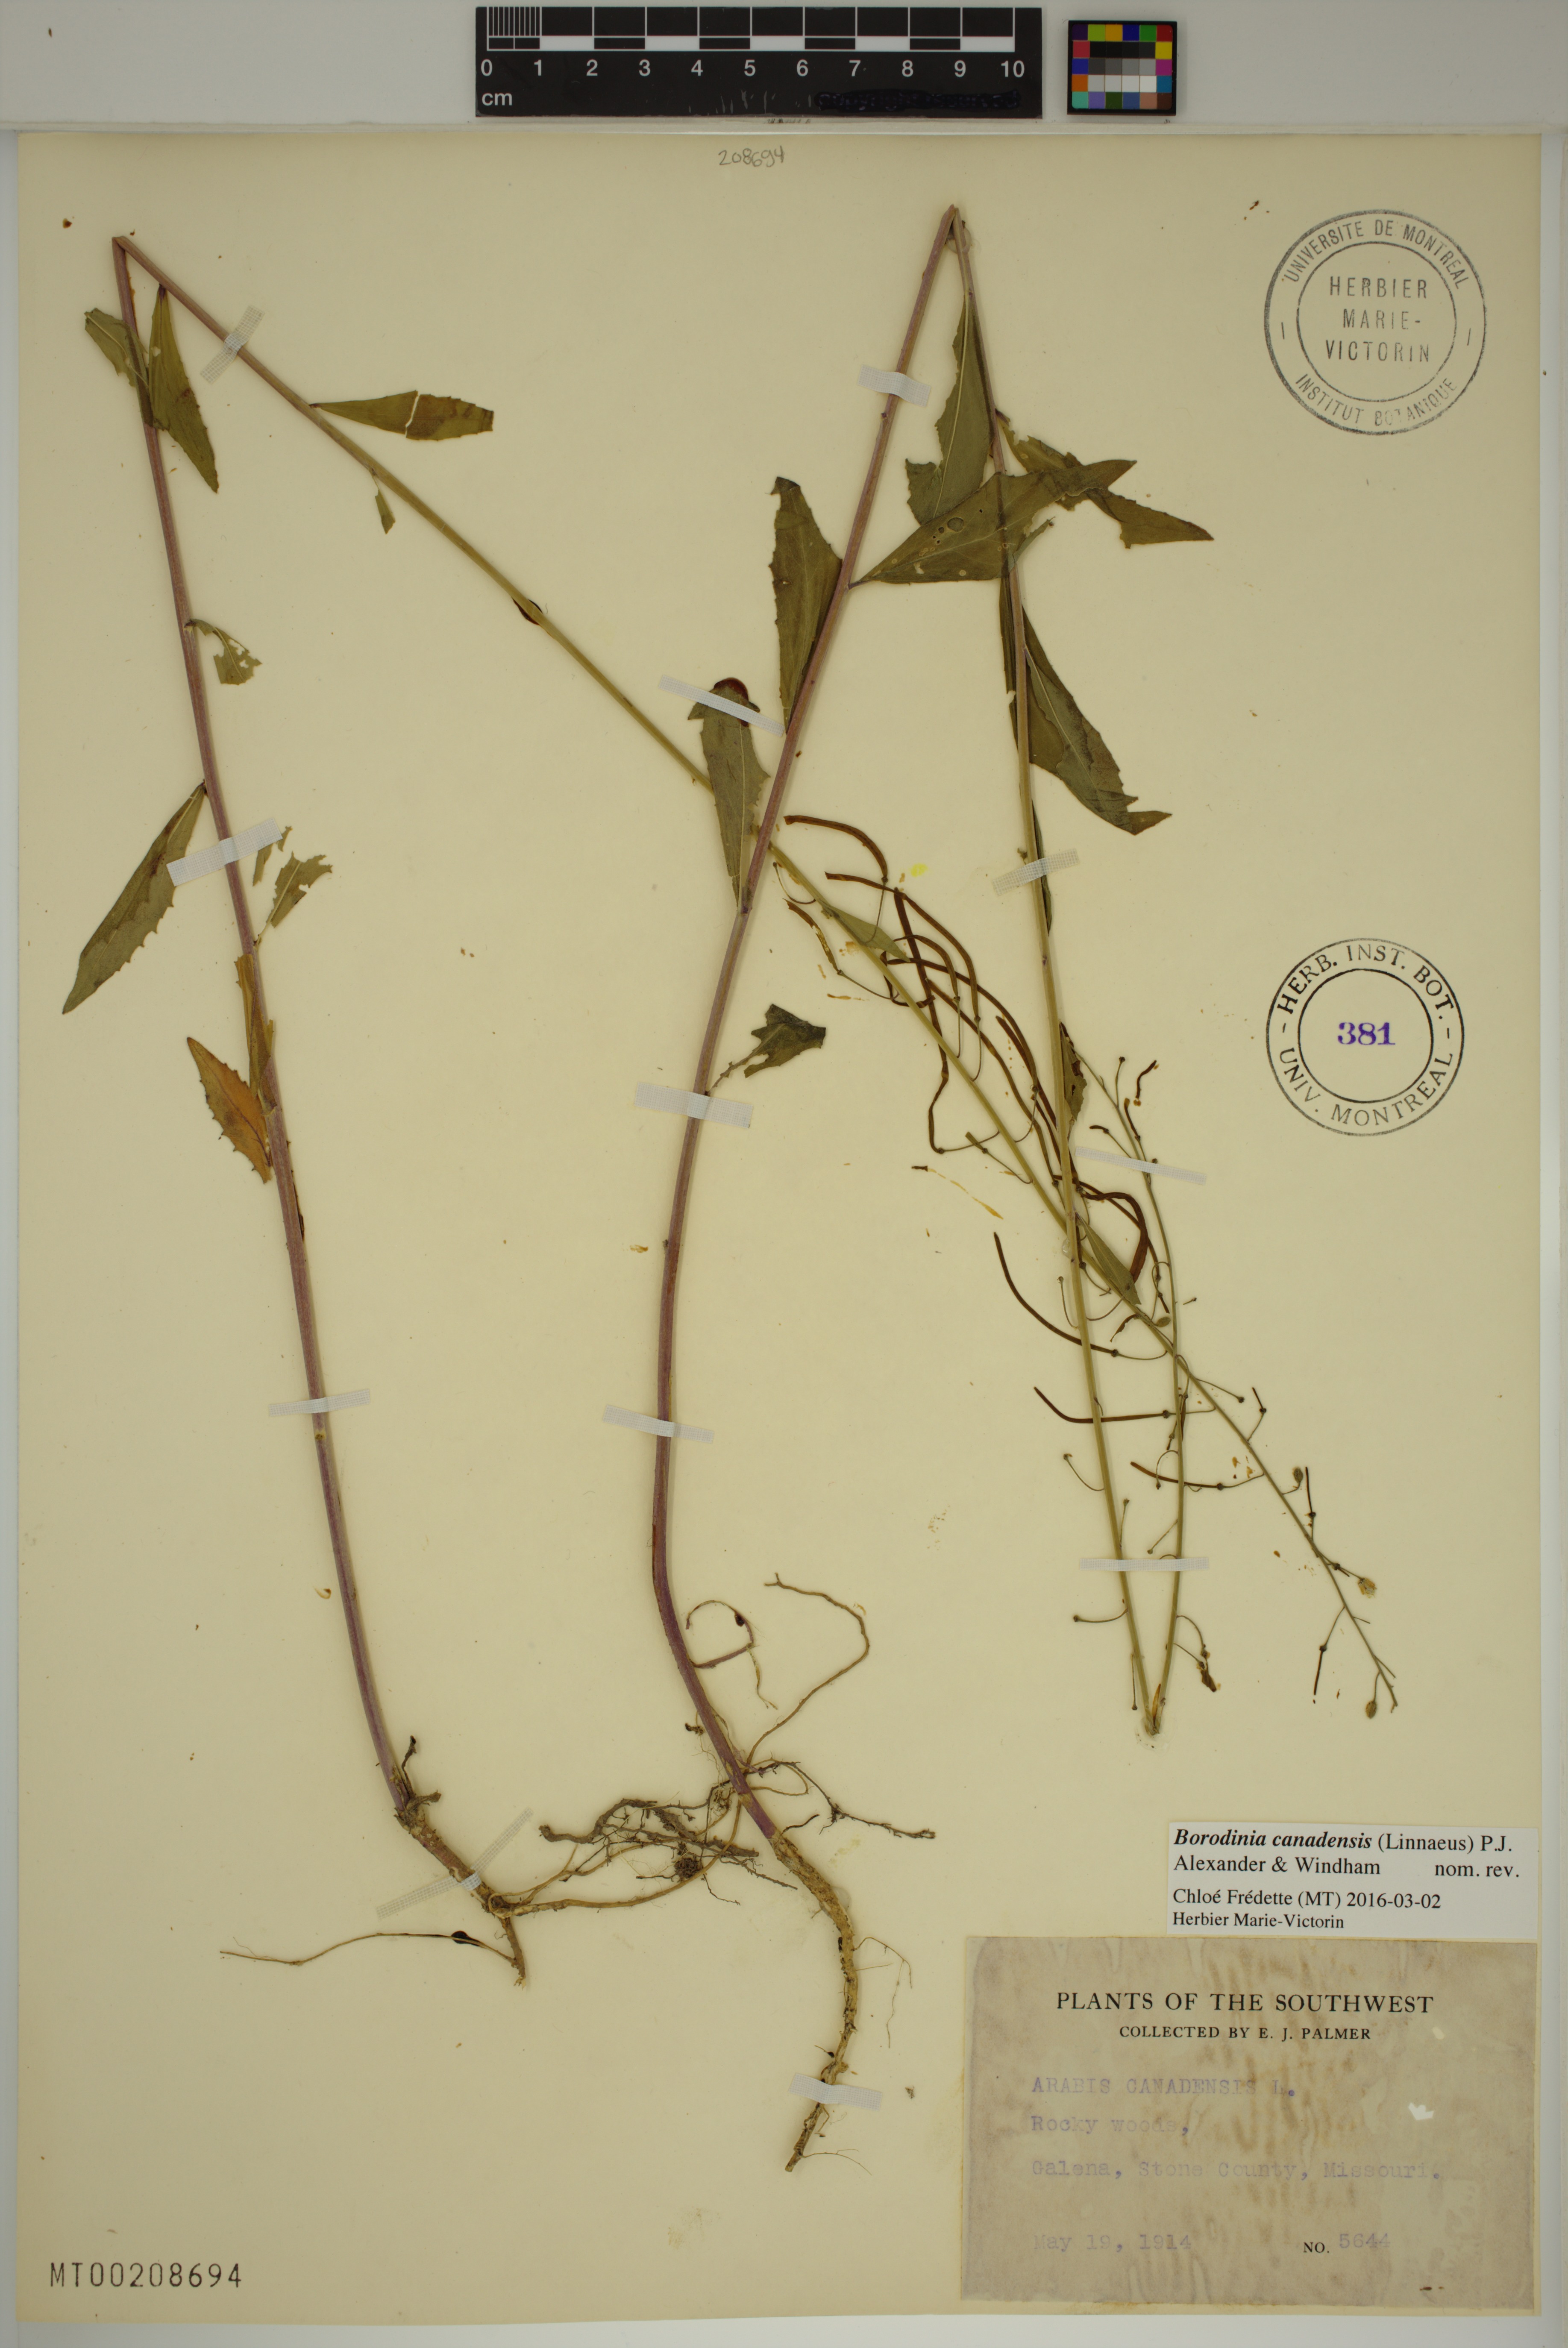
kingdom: Plantae
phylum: Tracheophyta
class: Magnoliopsida
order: Brassicales
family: Brassicaceae
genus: Borodinia
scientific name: Borodinia canadensis
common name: Sicklepod
